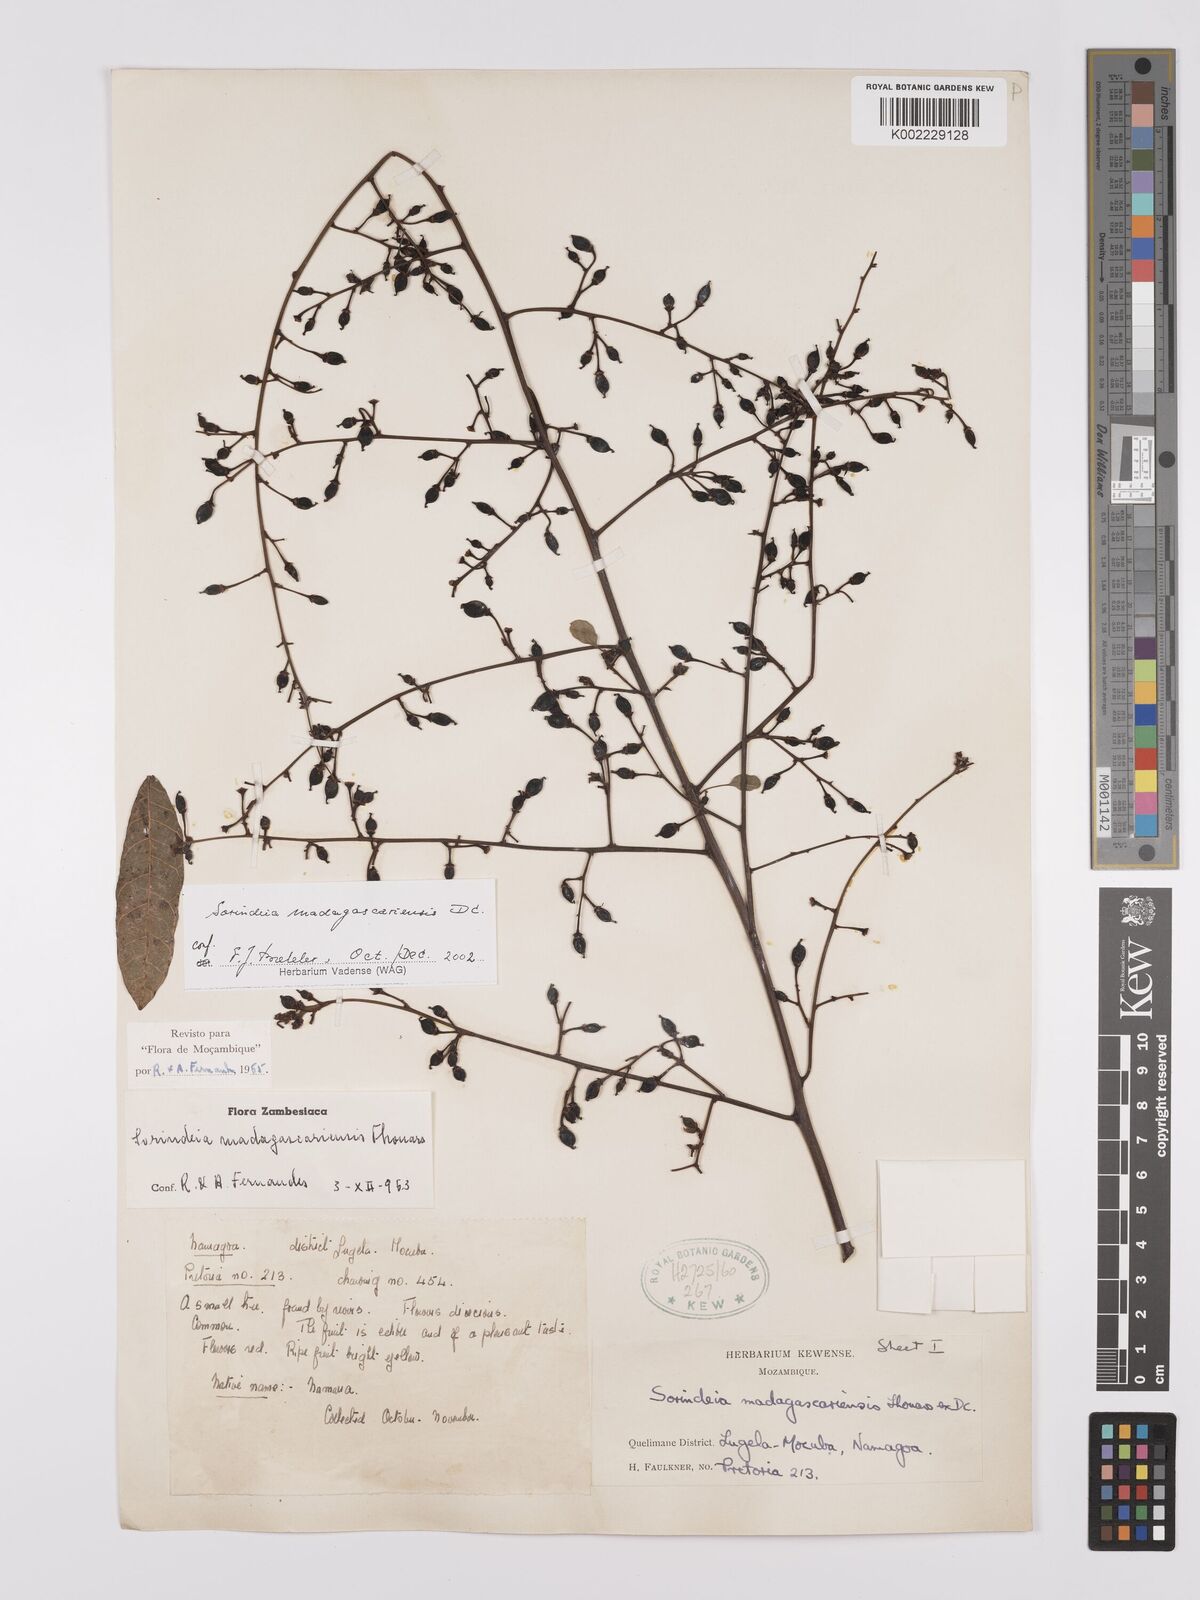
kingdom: Plantae
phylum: Tracheophyta
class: Magnoliopsida
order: Sapindales
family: Anacardiaceae
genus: Sorindeia
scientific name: Sorindeia madagascariensis
